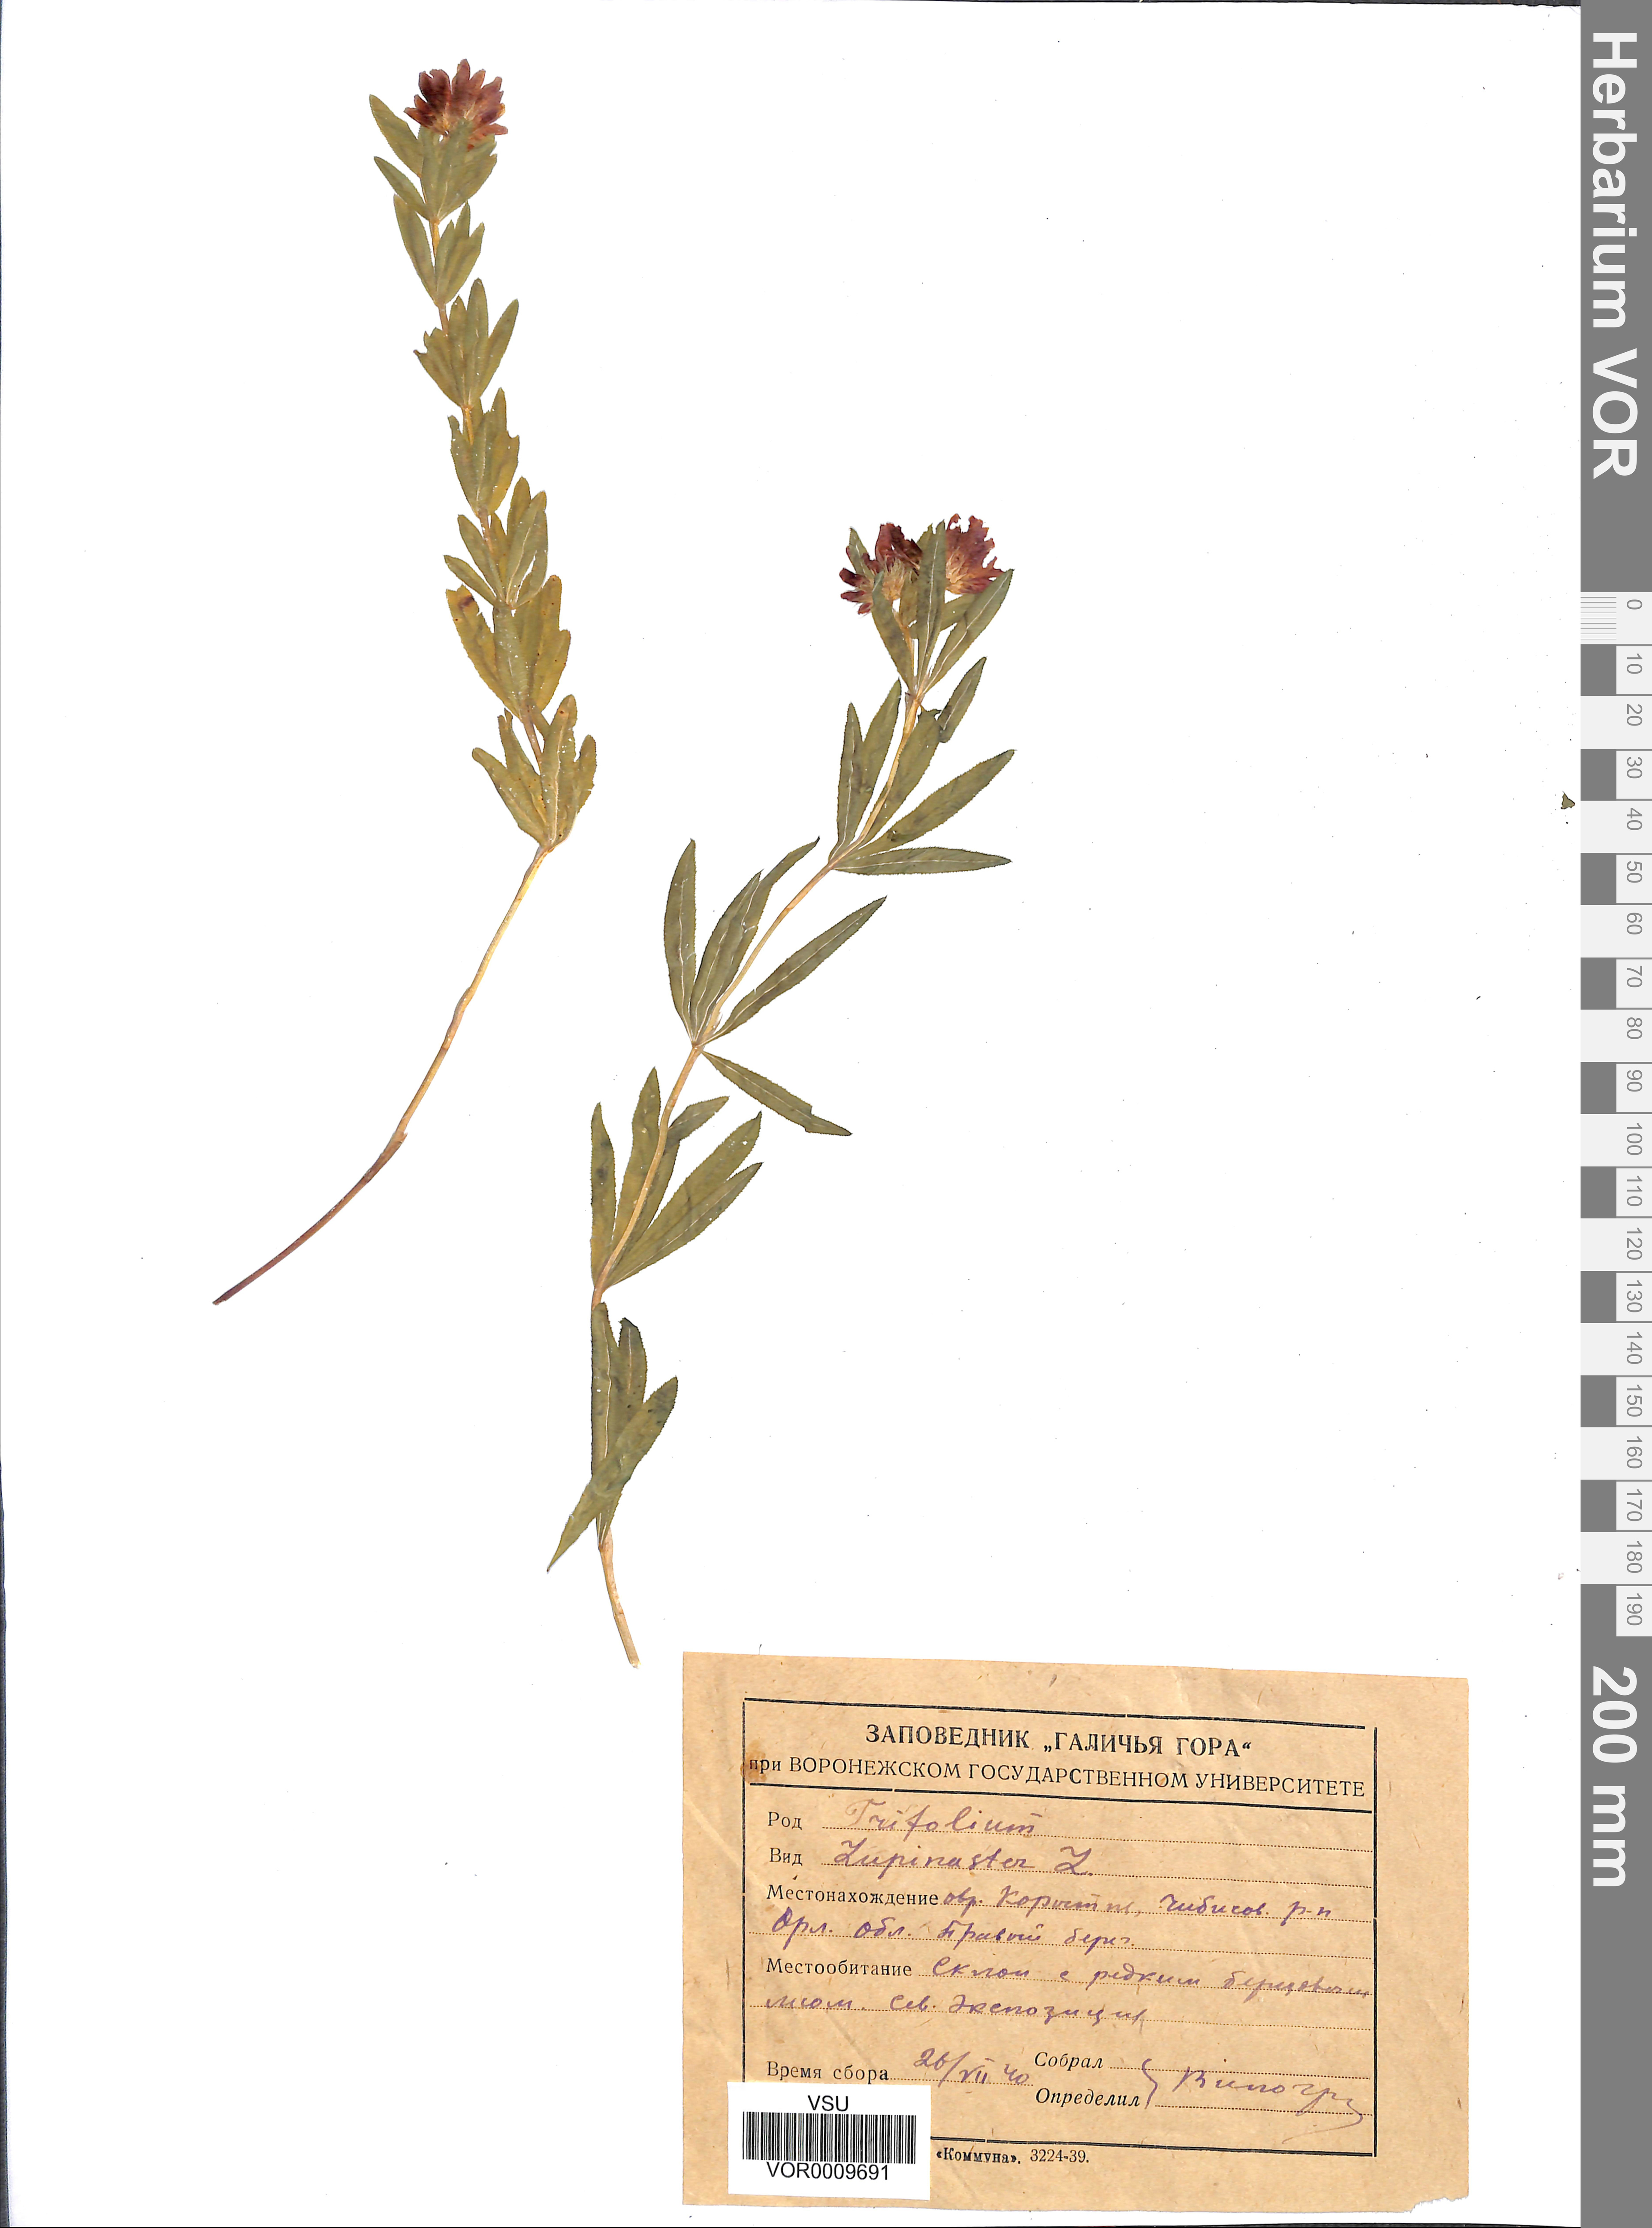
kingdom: Plantae
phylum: Tracheophyta
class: Magnoliopsida
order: Fabales
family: Fabaceae
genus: Trifolium
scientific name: Trifolium lupinaster
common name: Lupine clover
